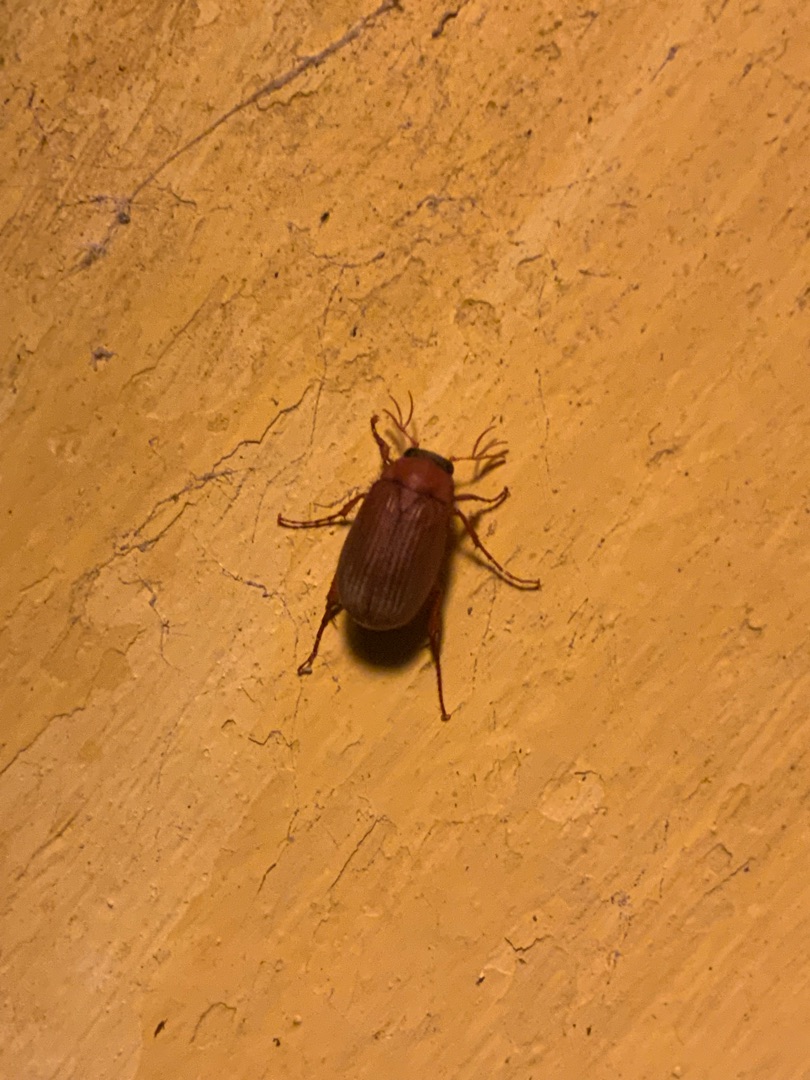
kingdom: Animalia
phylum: Arthropoda
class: Insecta
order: Coleoptera
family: Scarabaeidae
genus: Serica
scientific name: Serica brunnea
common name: Natoldenborre
